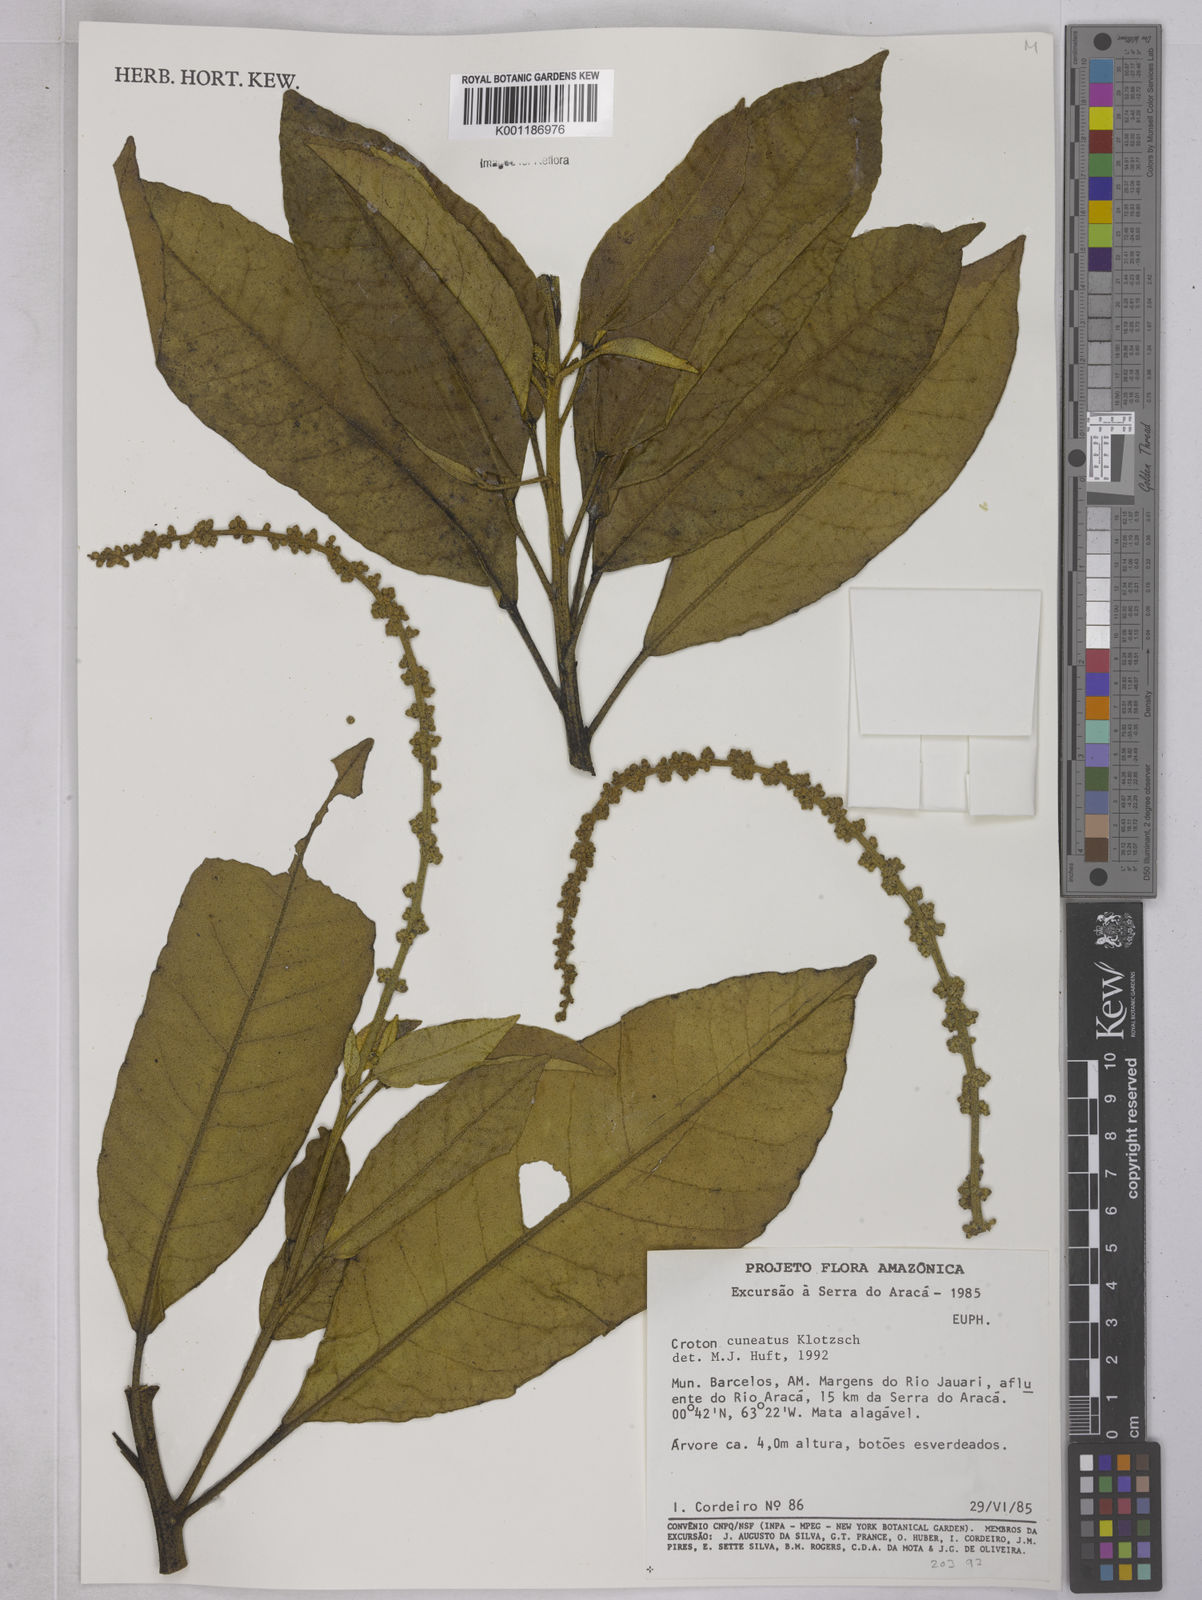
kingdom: Plantae
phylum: Tracheophyta
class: Magnoliopsida
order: Malpighiales
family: Euphorbiaceae
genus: Croton
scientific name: Croton
